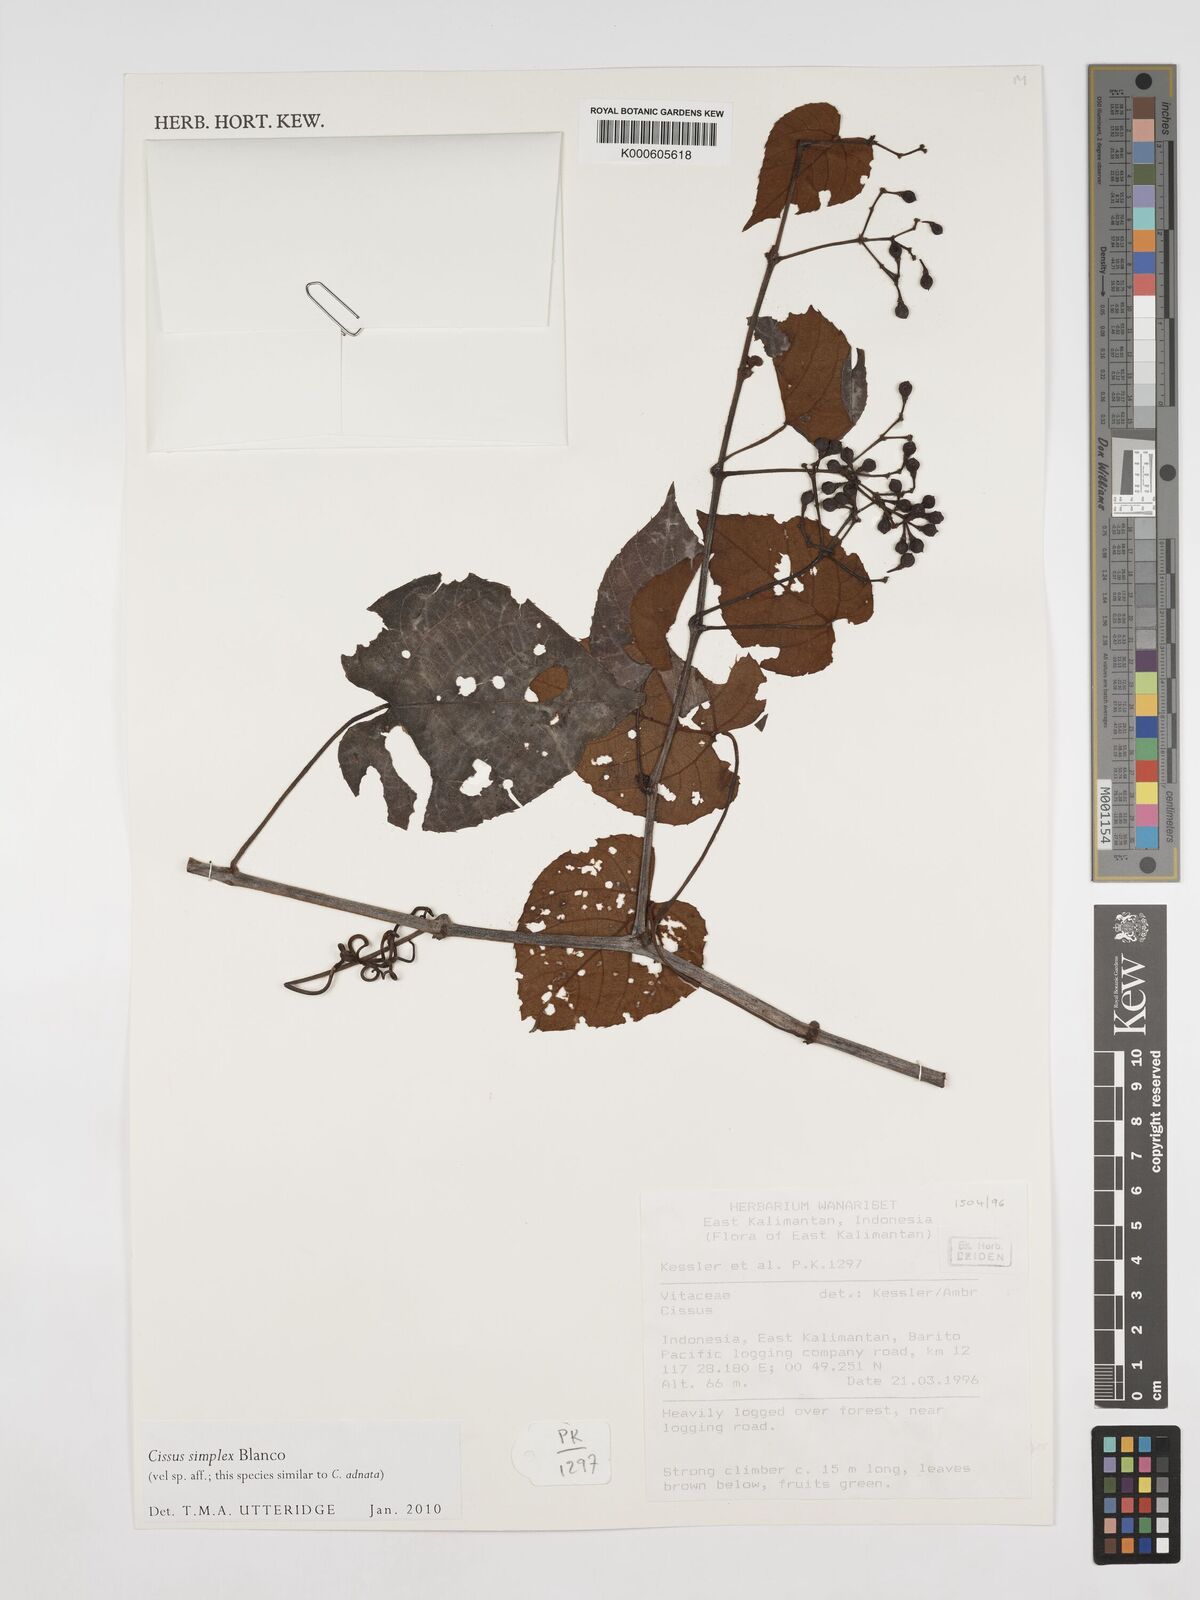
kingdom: Plantae
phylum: Tracheophyta
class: Magnoliopsida
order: Vitales
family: Vitaceae
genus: Cissus
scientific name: Cissus aristata
